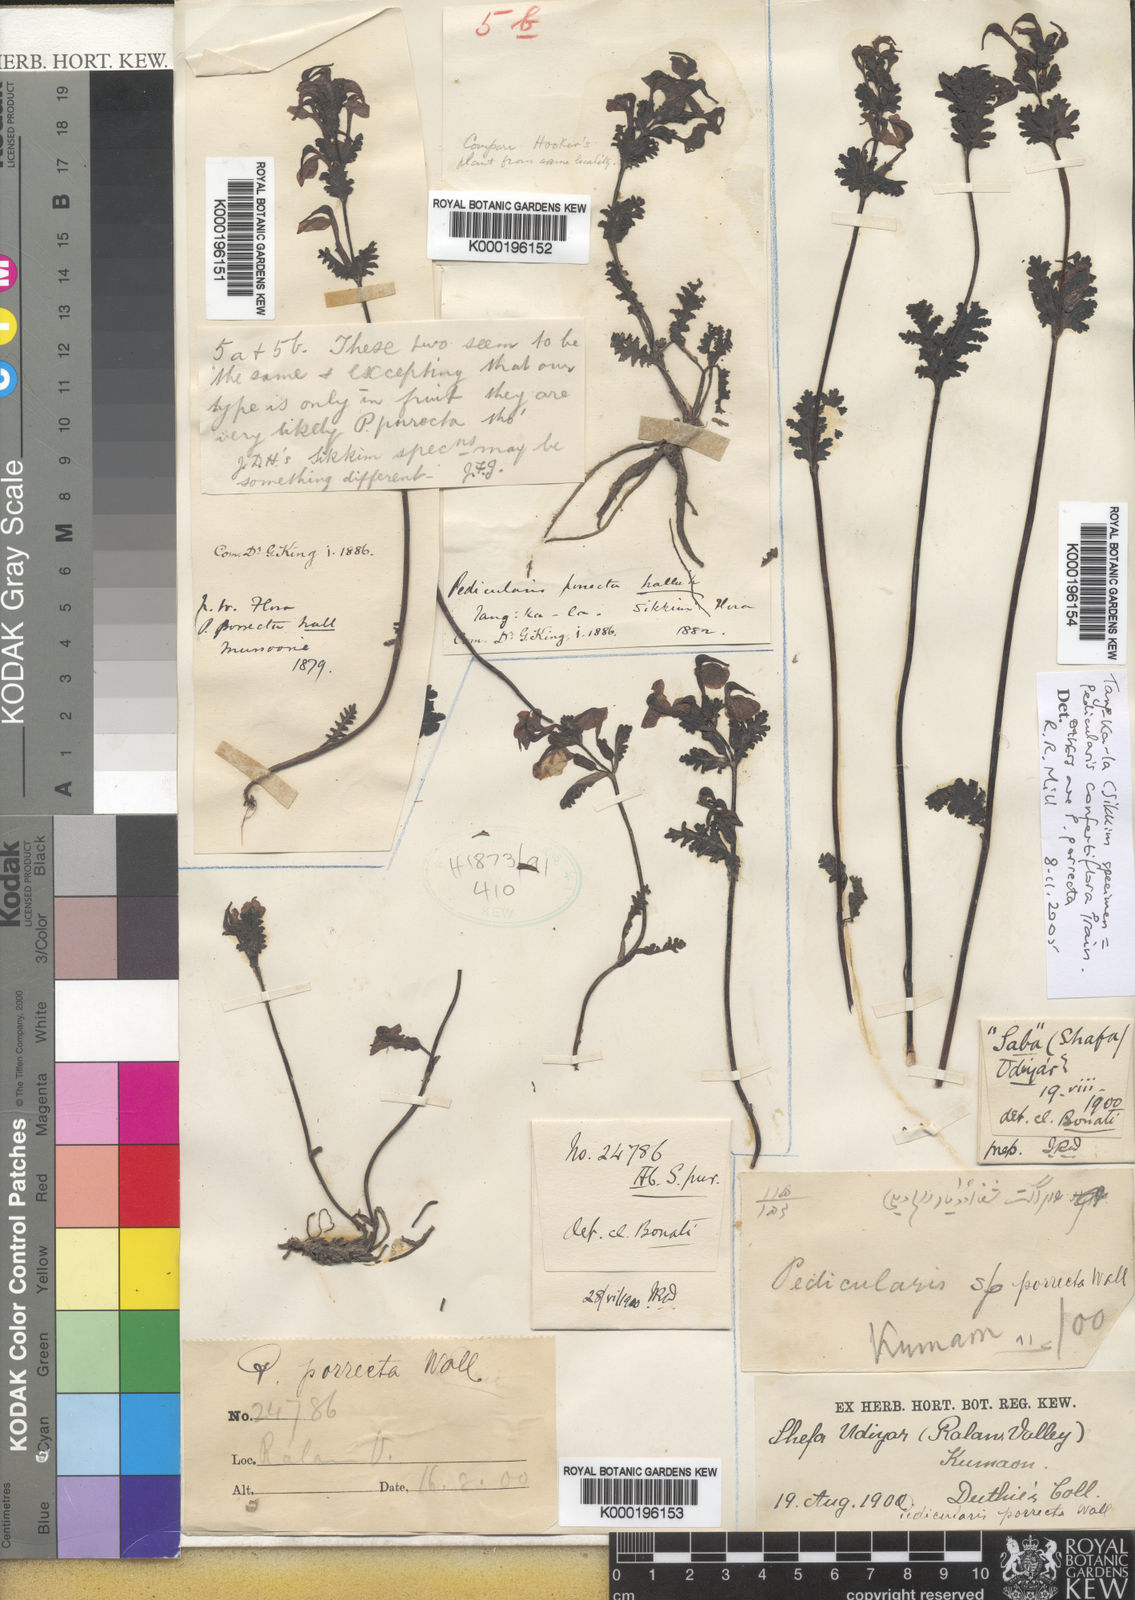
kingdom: Plantae
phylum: Tracheophyta
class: Magnoliopsida
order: Lamiales
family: Orobanchaceae
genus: Pedicularis
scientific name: Pedicularis
